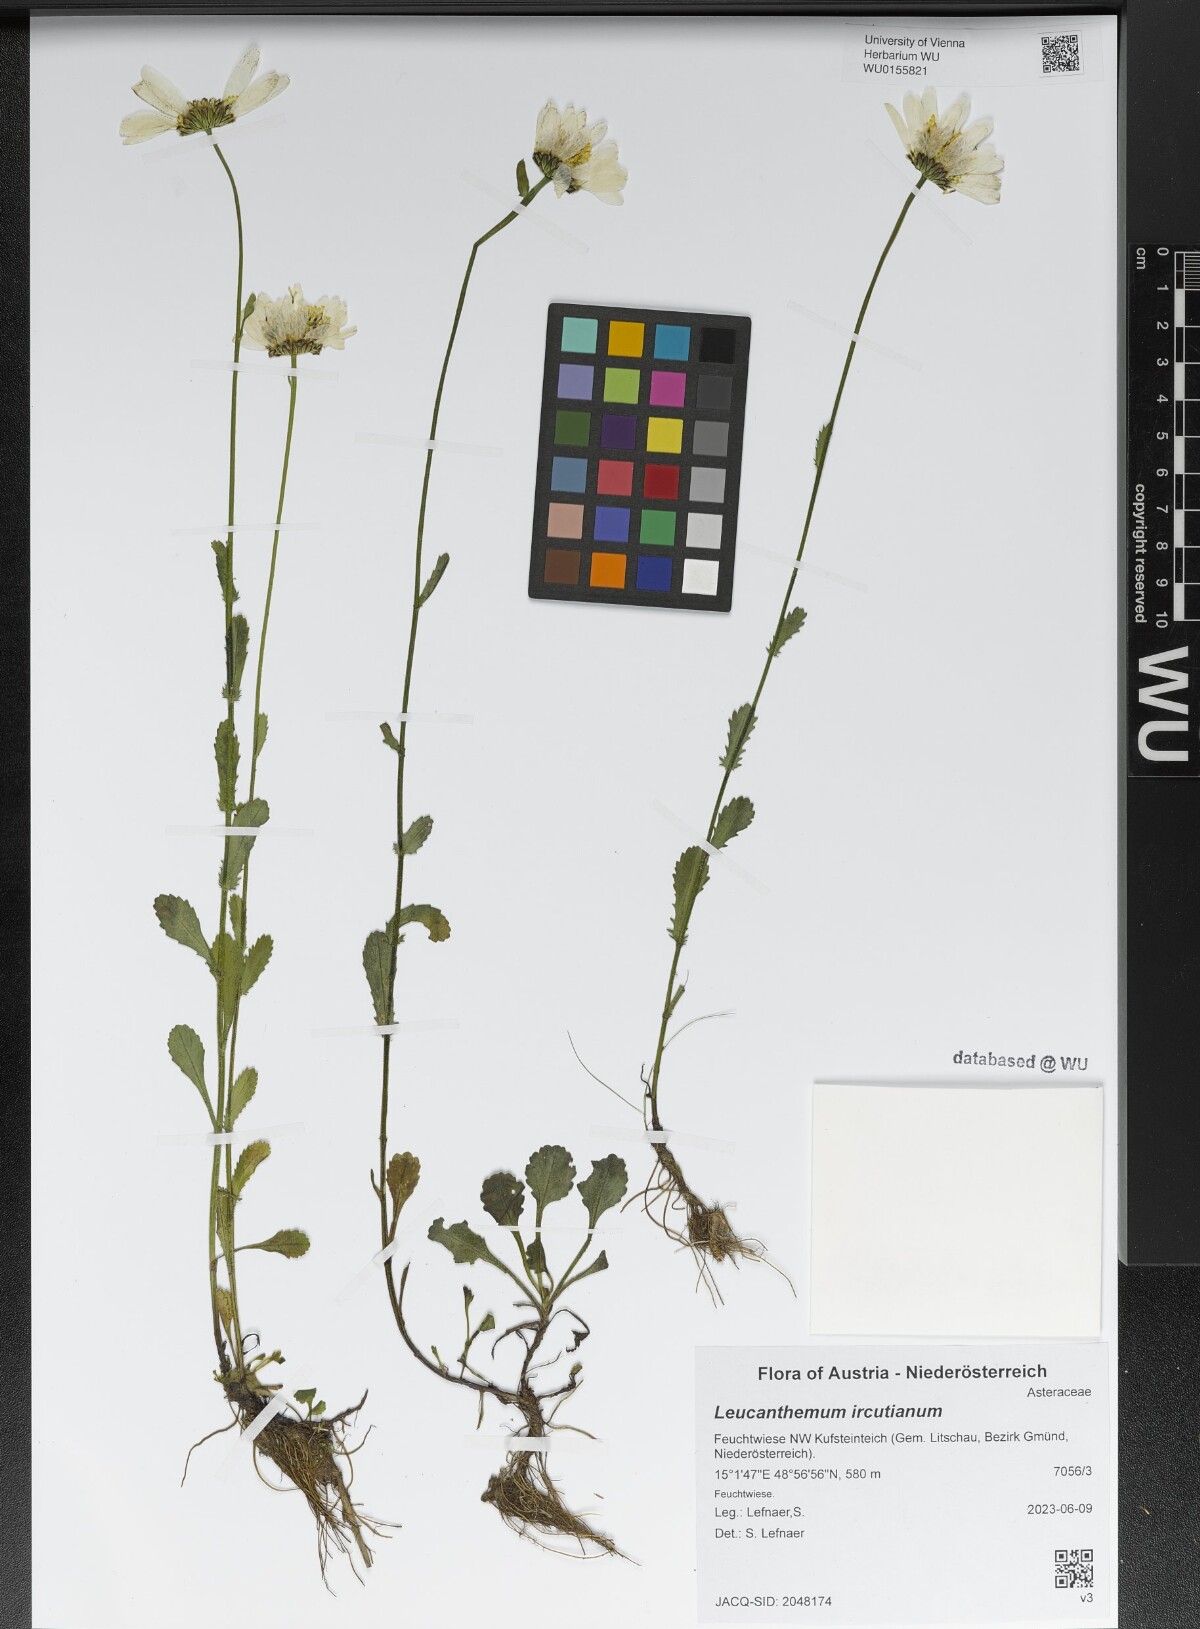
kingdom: Plantae
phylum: Tracheophyta
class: Magnoliopsida
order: Asterales
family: Asteraceae
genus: Leucanthemum
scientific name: Leucanthemum ircutianum
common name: Daisy
